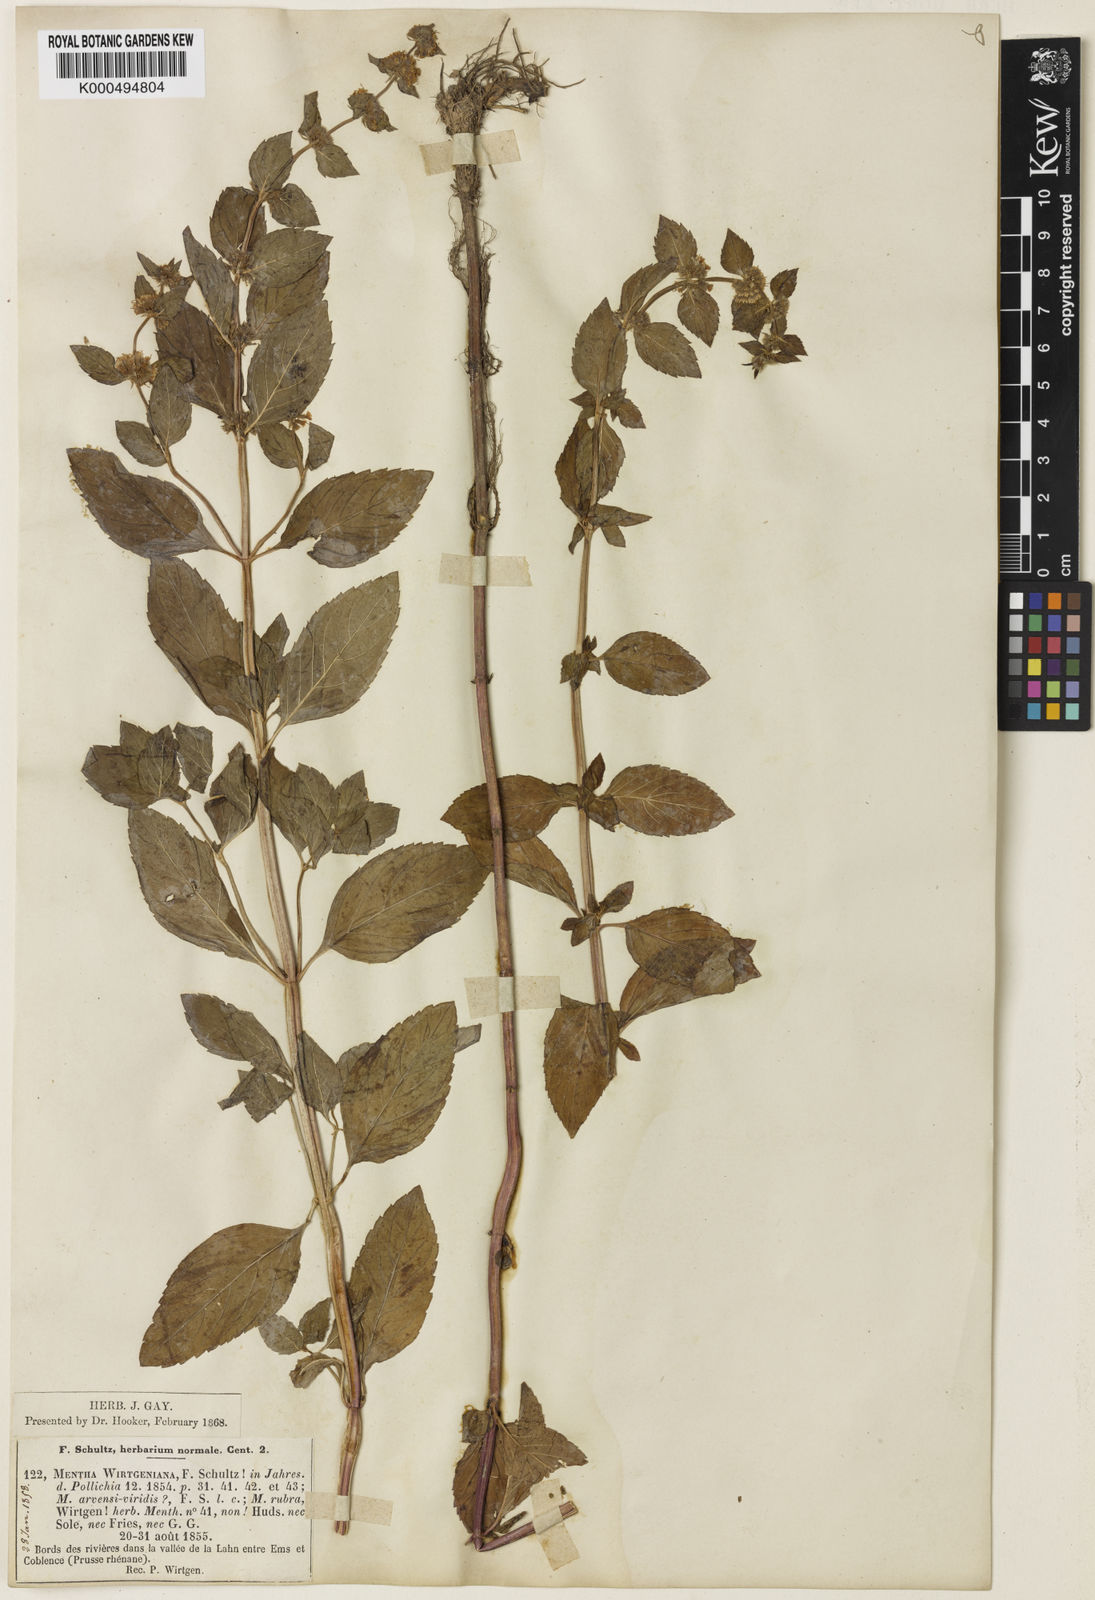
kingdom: Plantae
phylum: Tracheophyta
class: Magnoliopsida
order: Lamiales
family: Lamiaceae
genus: Mentha
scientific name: Mentha arvensis
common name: Corn mint
